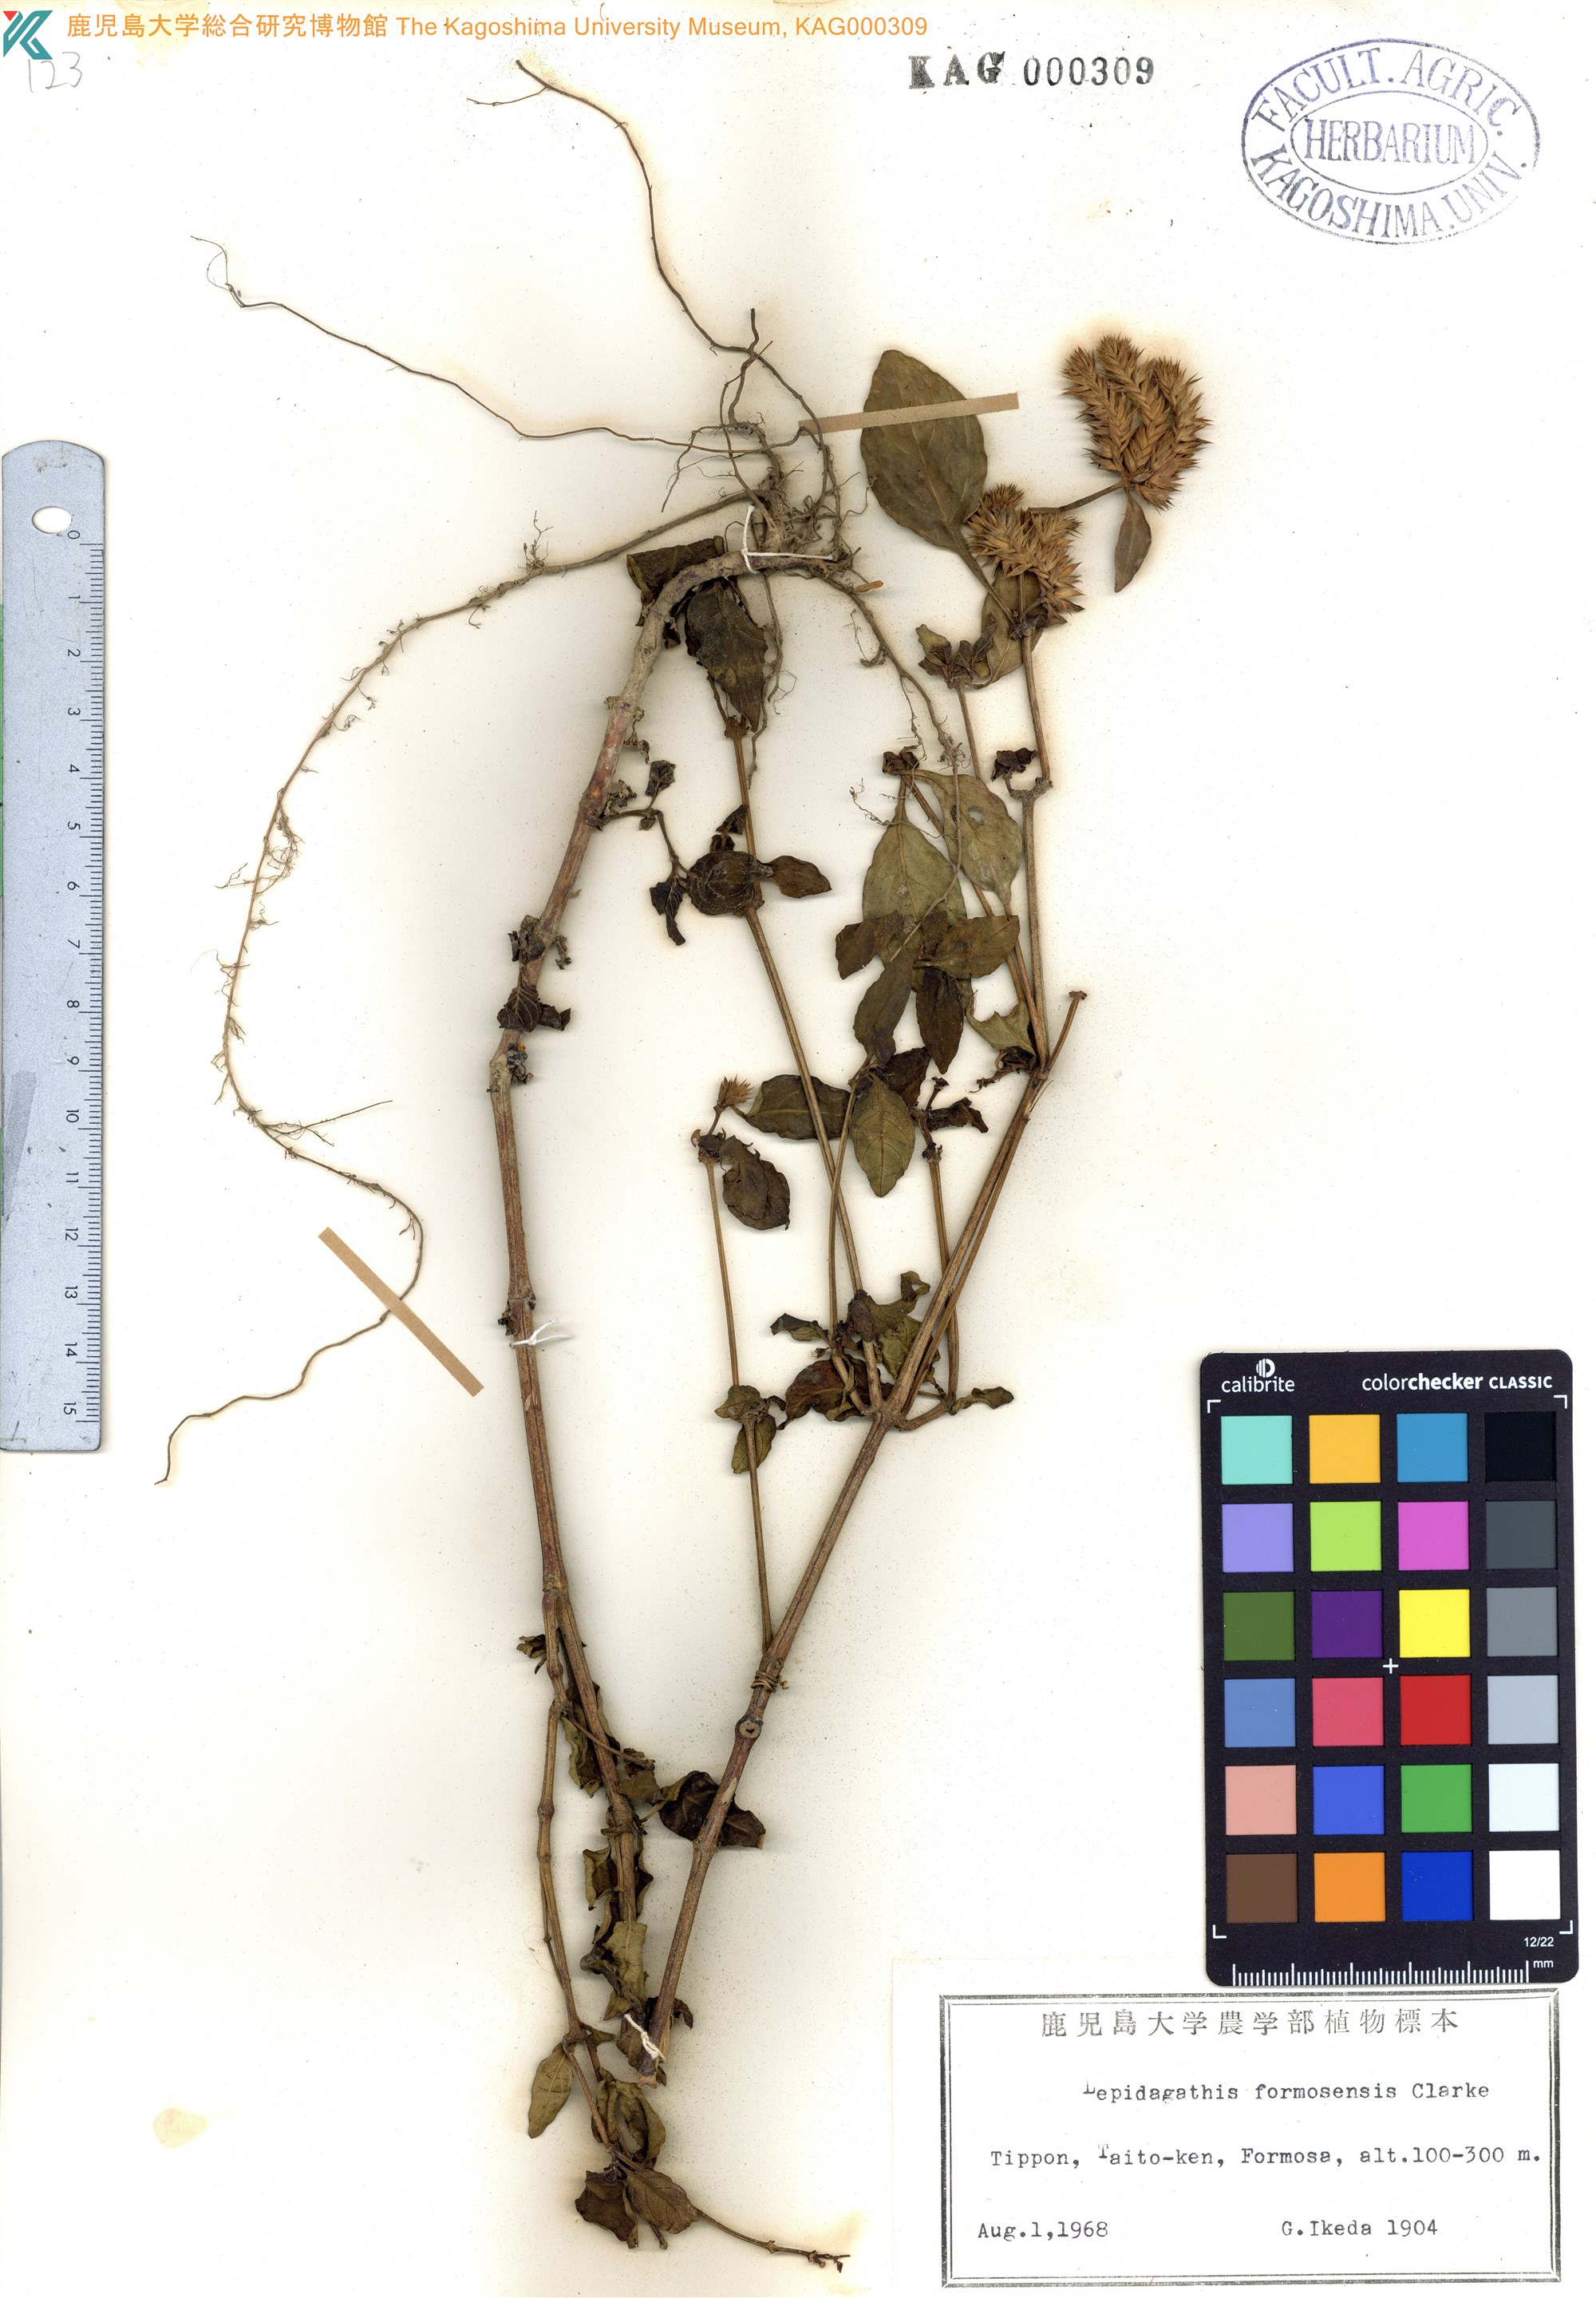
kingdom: Plantae
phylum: Tracheophyta
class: Magnoliopsida
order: Lamiales
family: Acanthaceae
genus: Lepidagathis
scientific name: Lepidagathis formosensis
